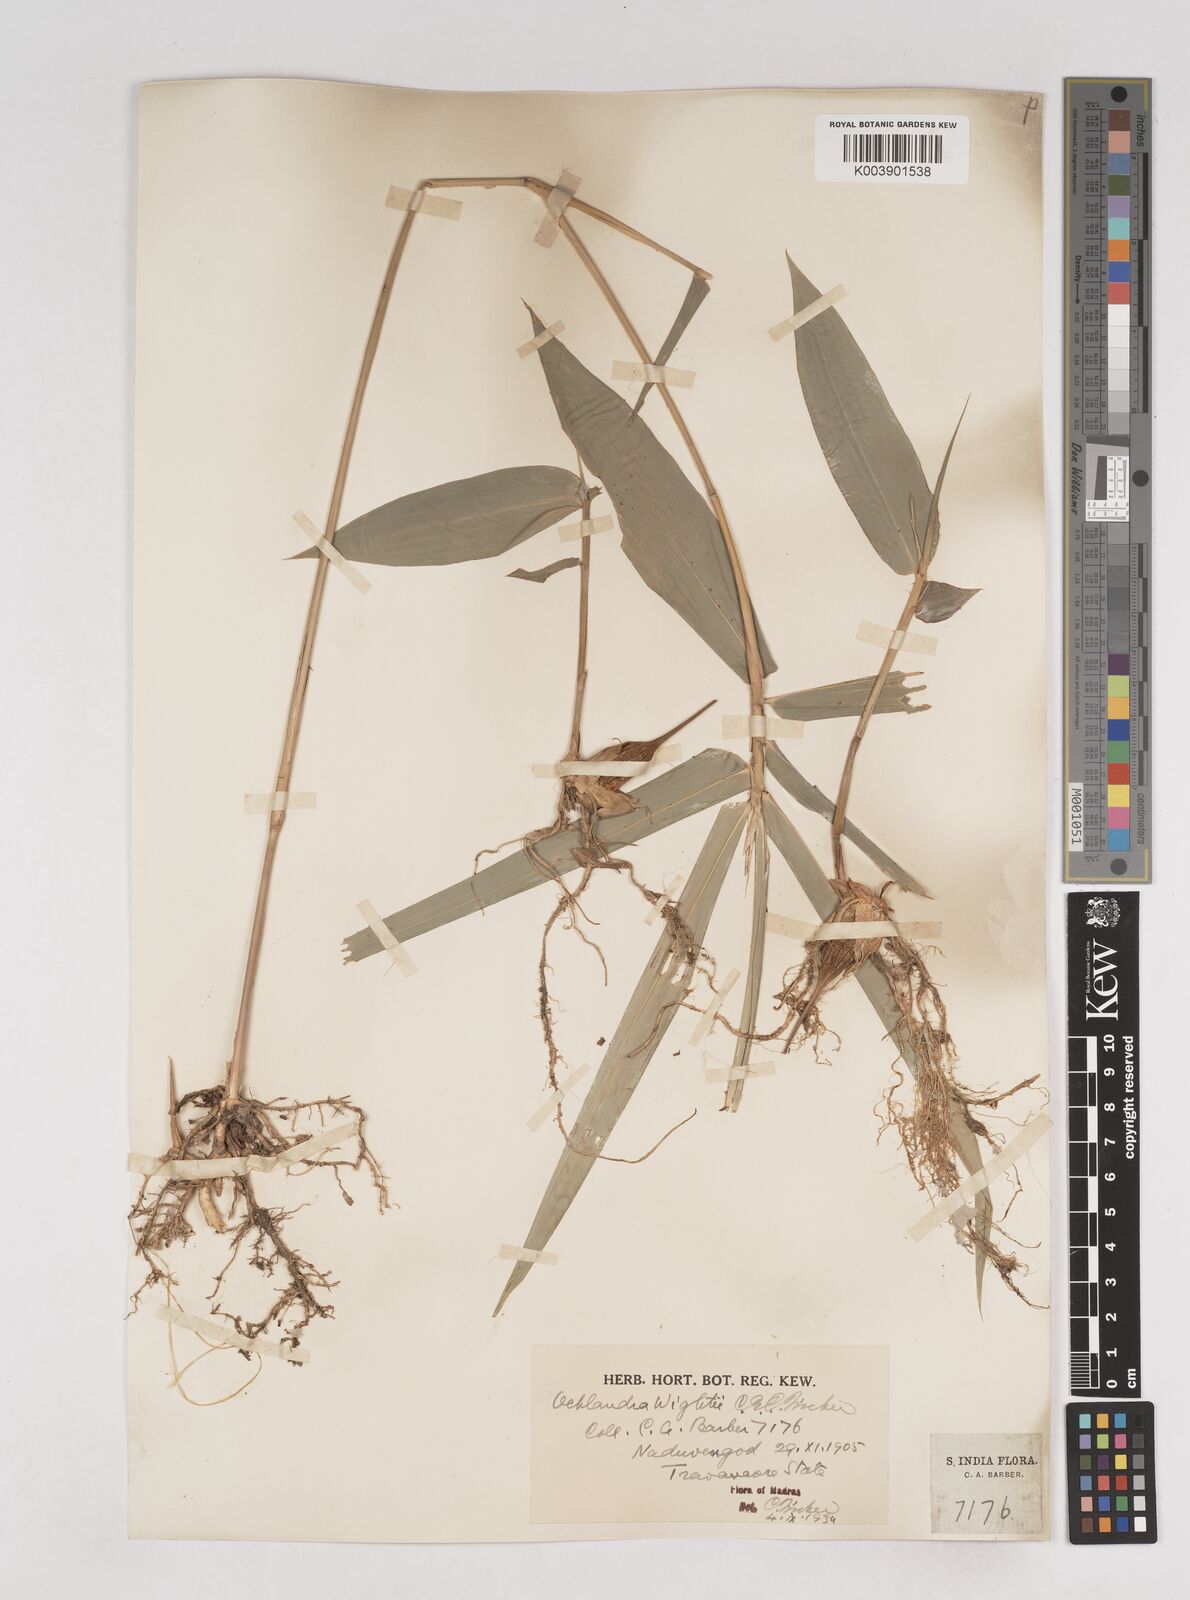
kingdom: Plantae
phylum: Tracheophyta
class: Liliopsida
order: Poales
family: Poaceae
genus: Ochlandra
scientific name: Ochlandra wightii
